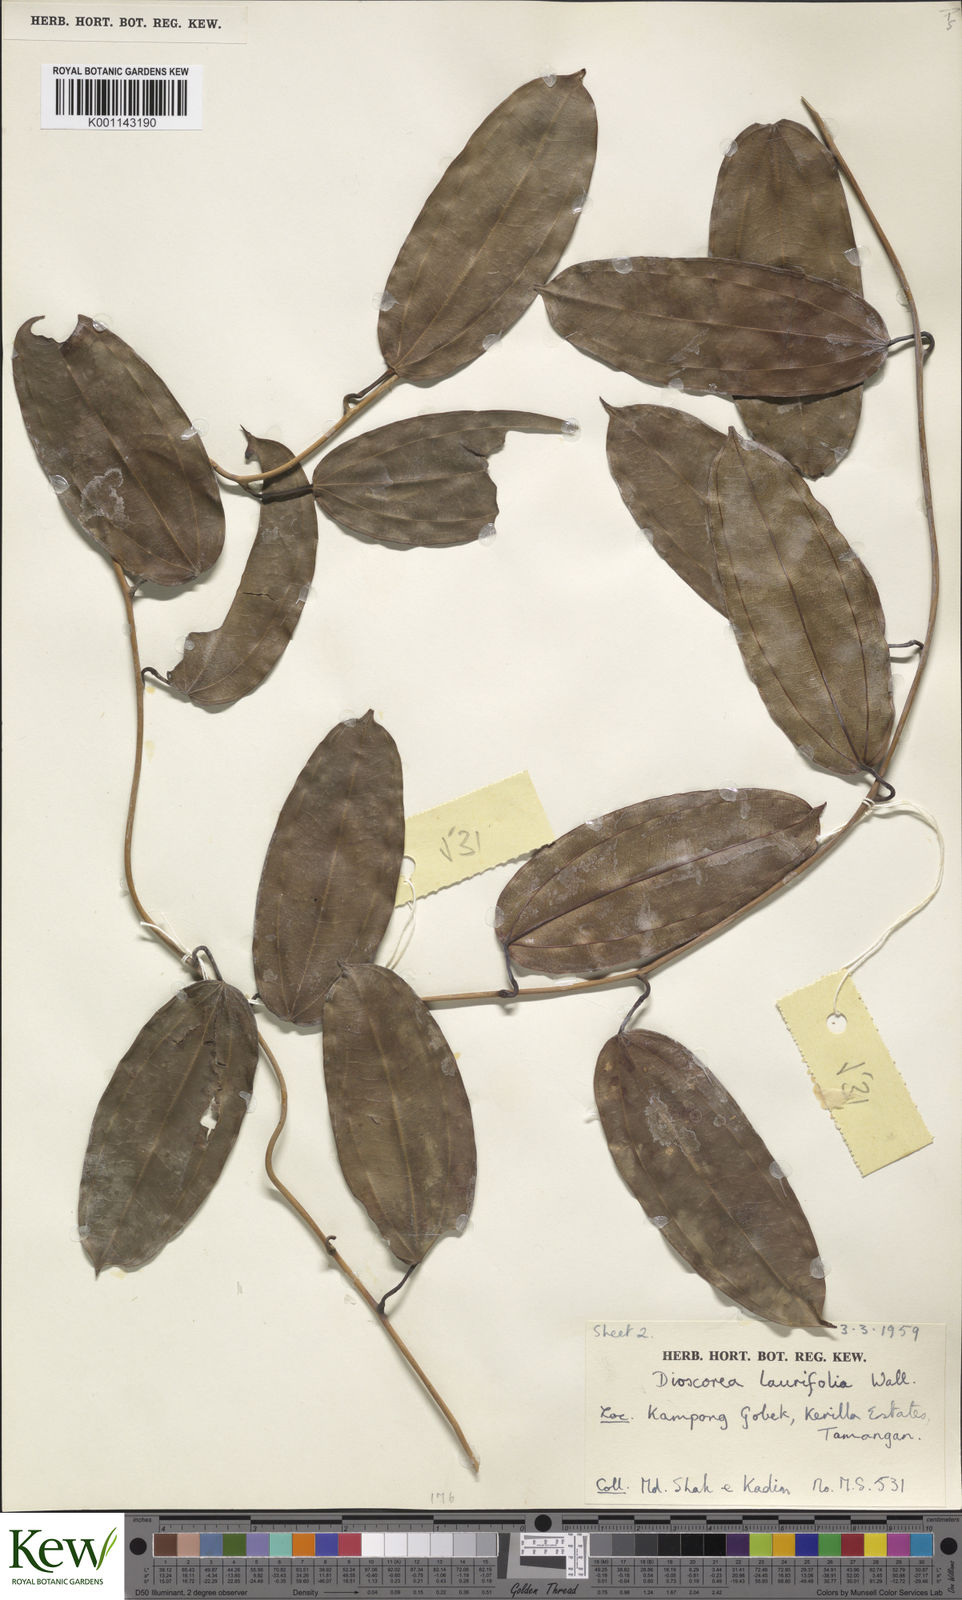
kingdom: Plantae
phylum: Tracheophyta
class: Liliopsida
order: Dioscoreales
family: Dioscoreaceae
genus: Dioscorea
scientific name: Dioscorea laurifolia
